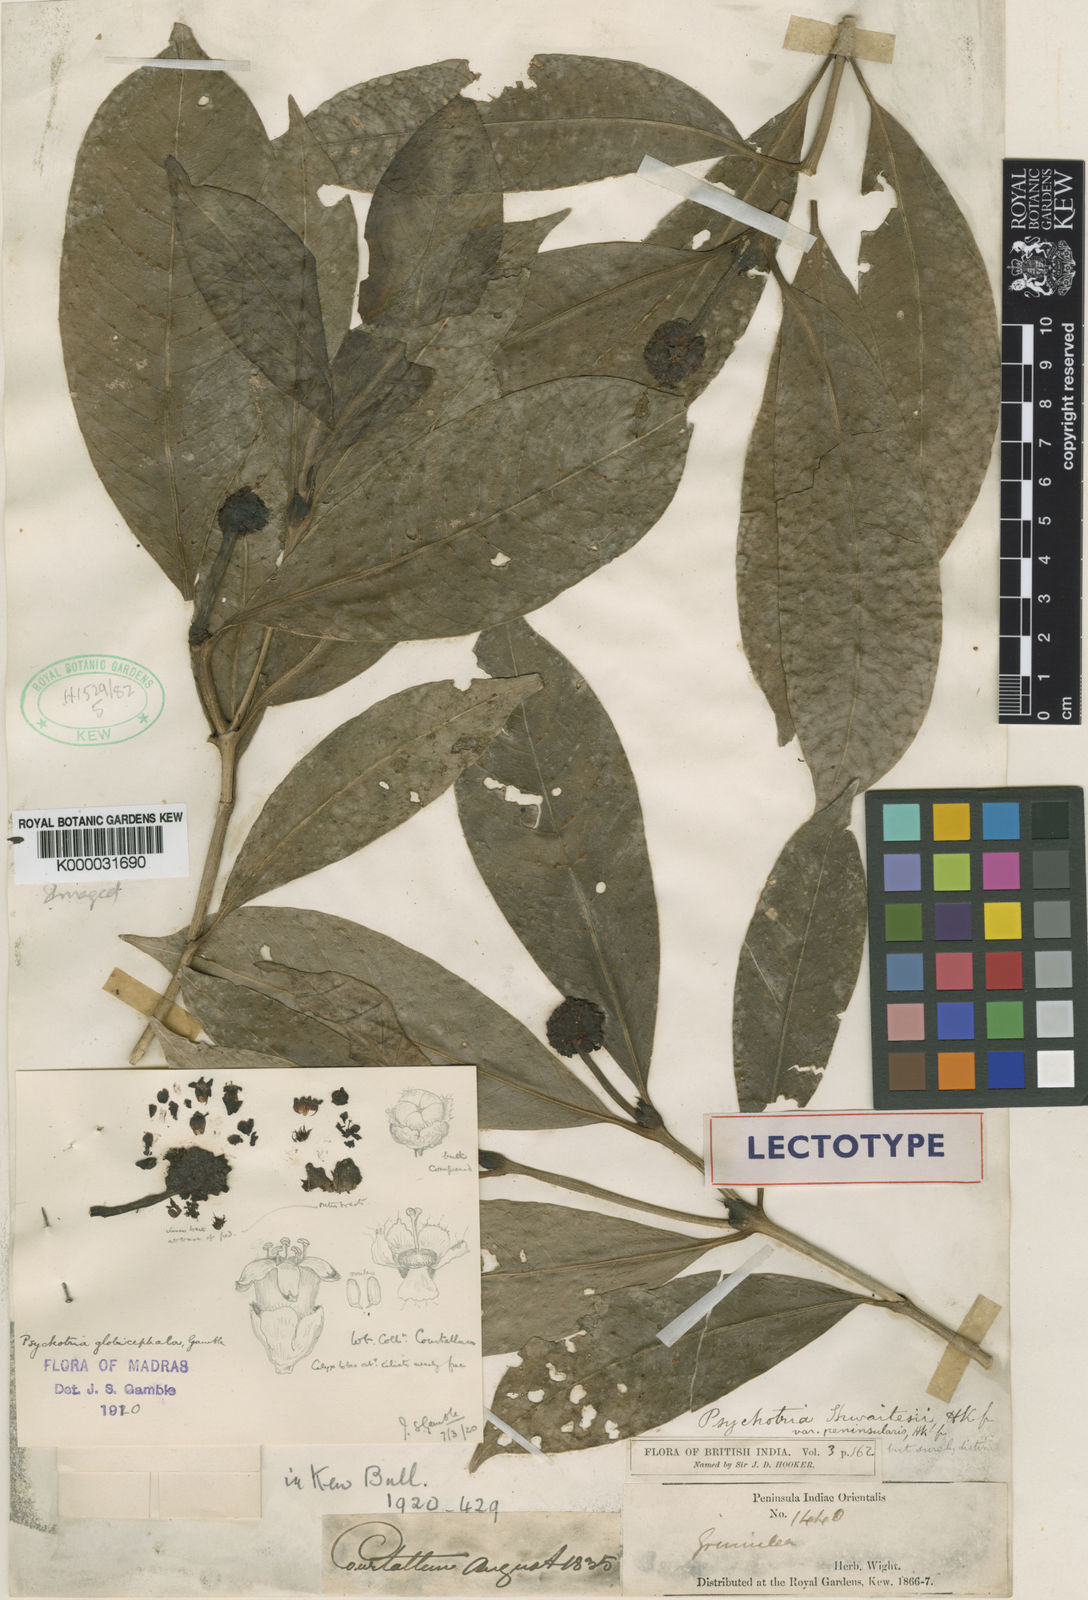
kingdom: Plantae
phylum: Tracheophyta
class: Magnoliopsida
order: Gentianales
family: Rubiaceae
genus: Psychotria
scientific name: Psychotria globicephala
